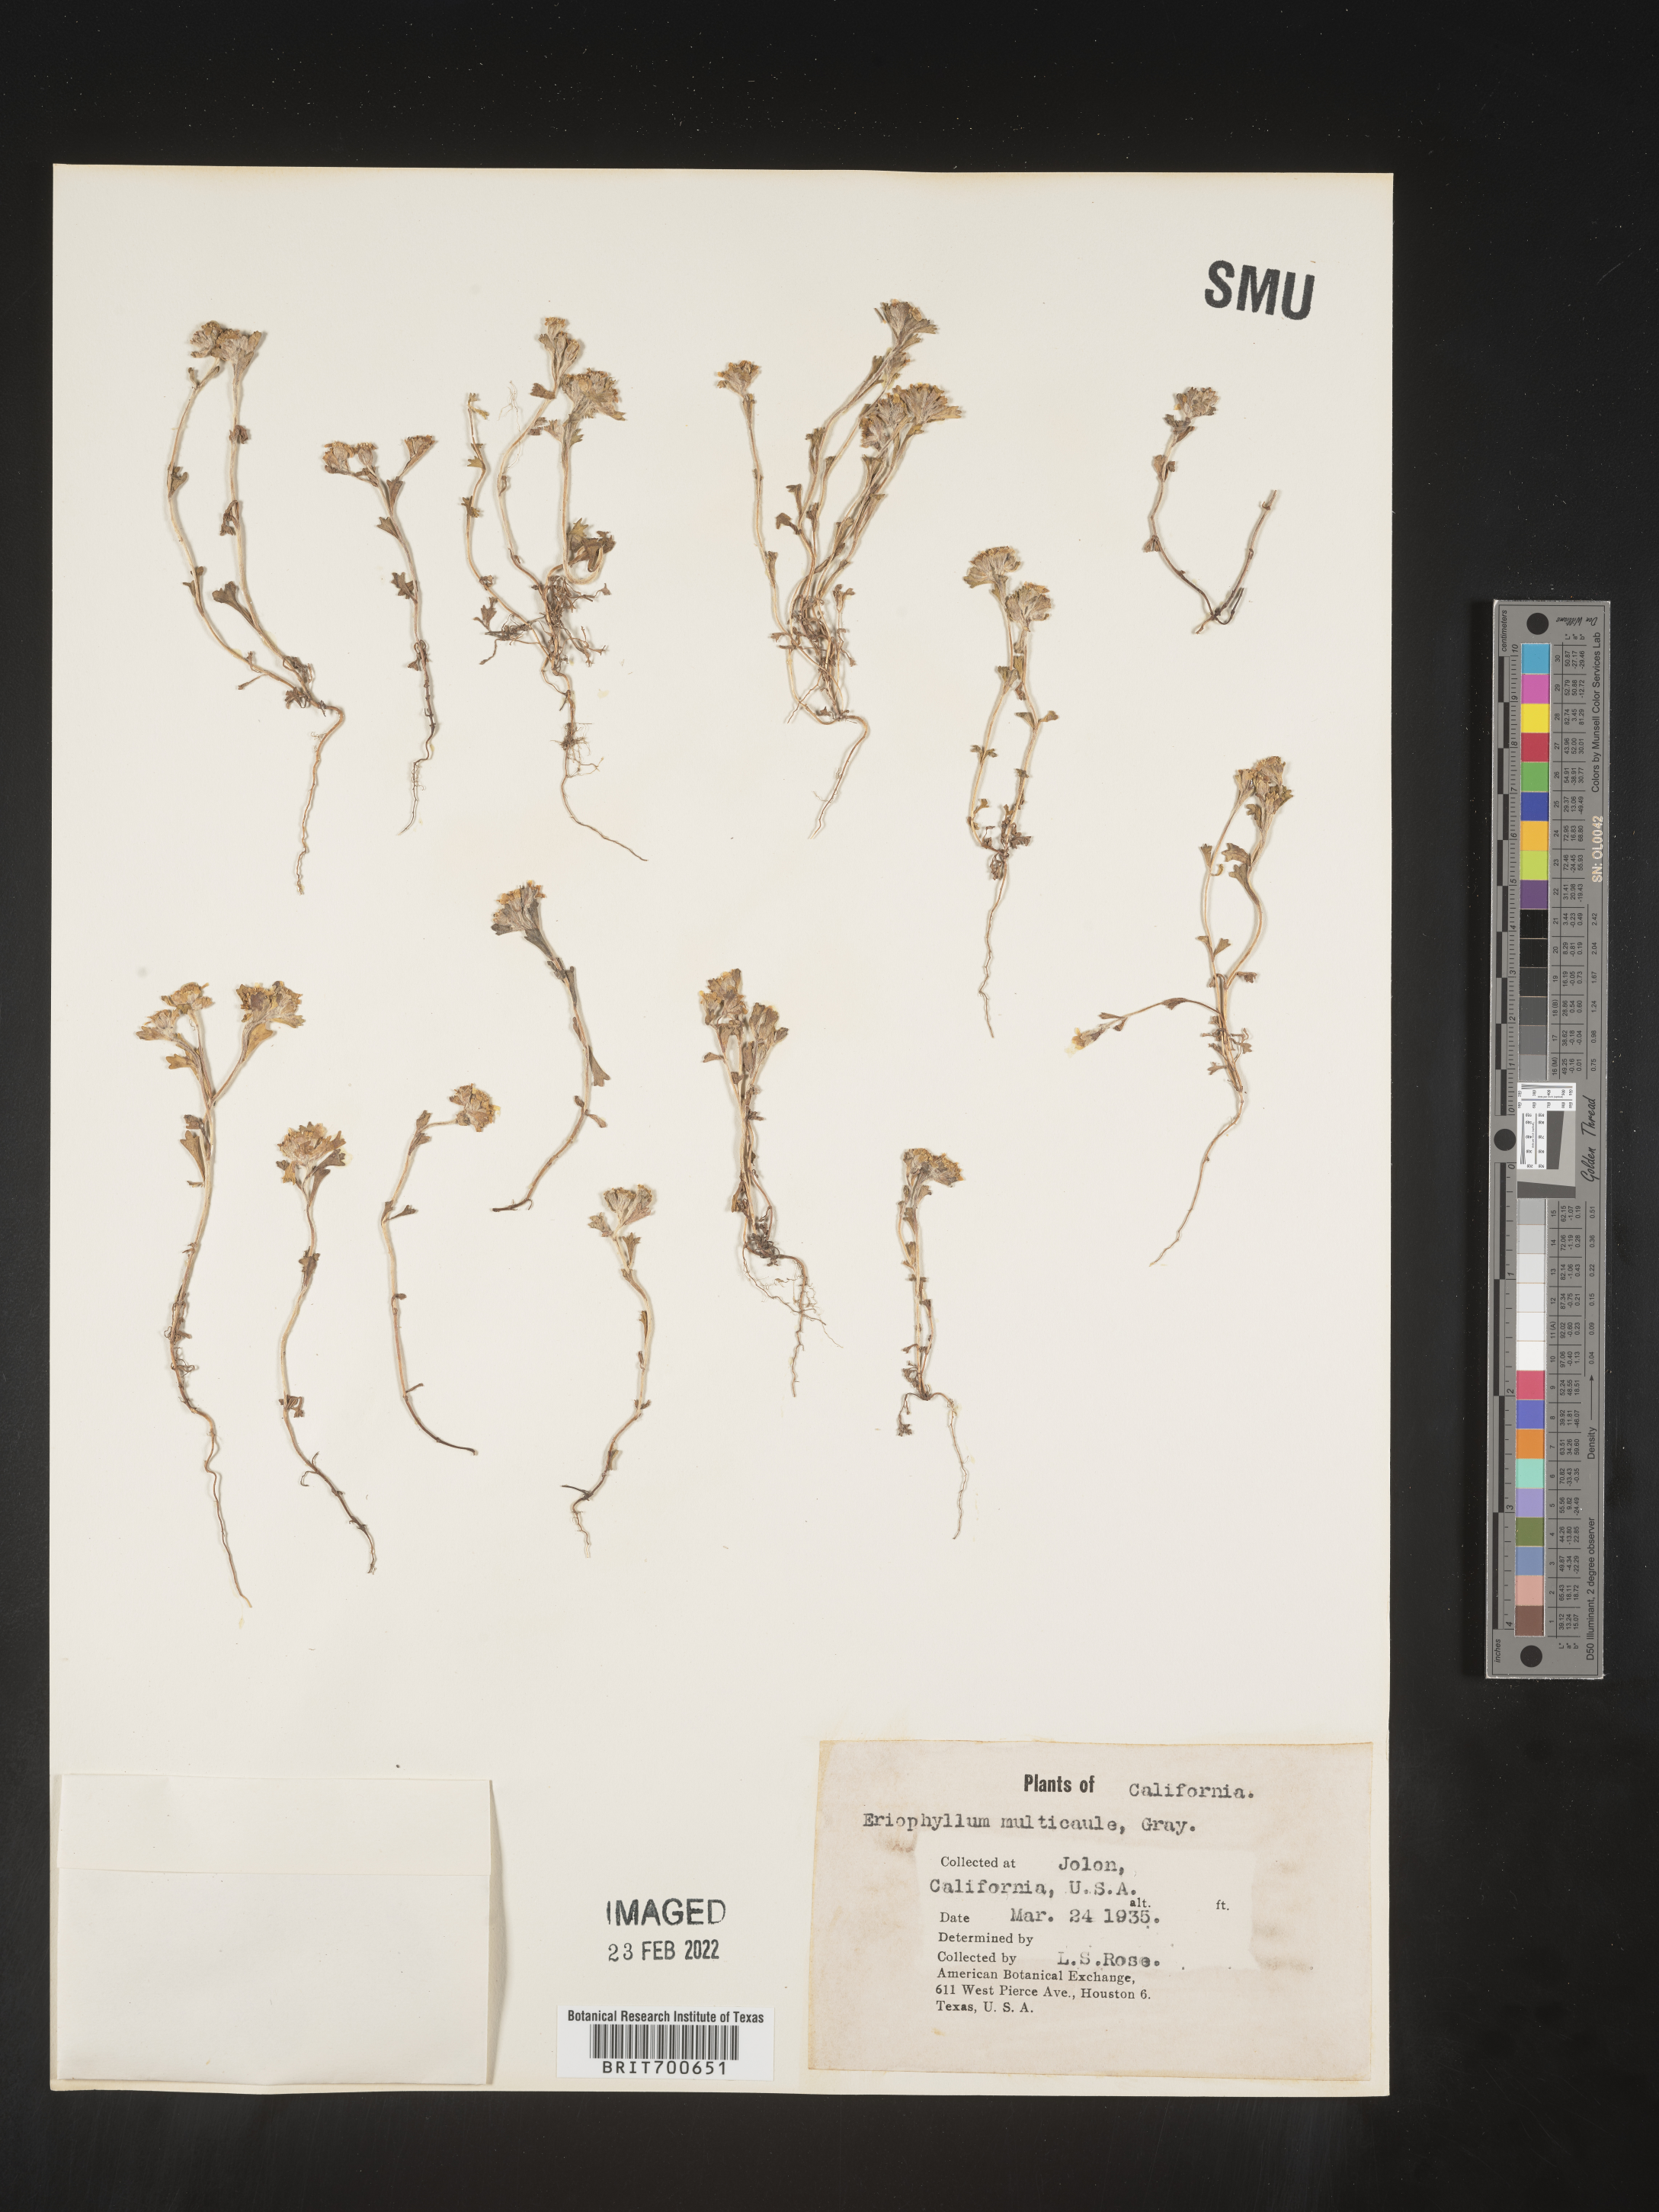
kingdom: Plantae
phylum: Tracheophyta
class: Magnoliopsida
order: Asterales
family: Asteraceae
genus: Eriophyllum
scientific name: Eriophyllum multicaule
